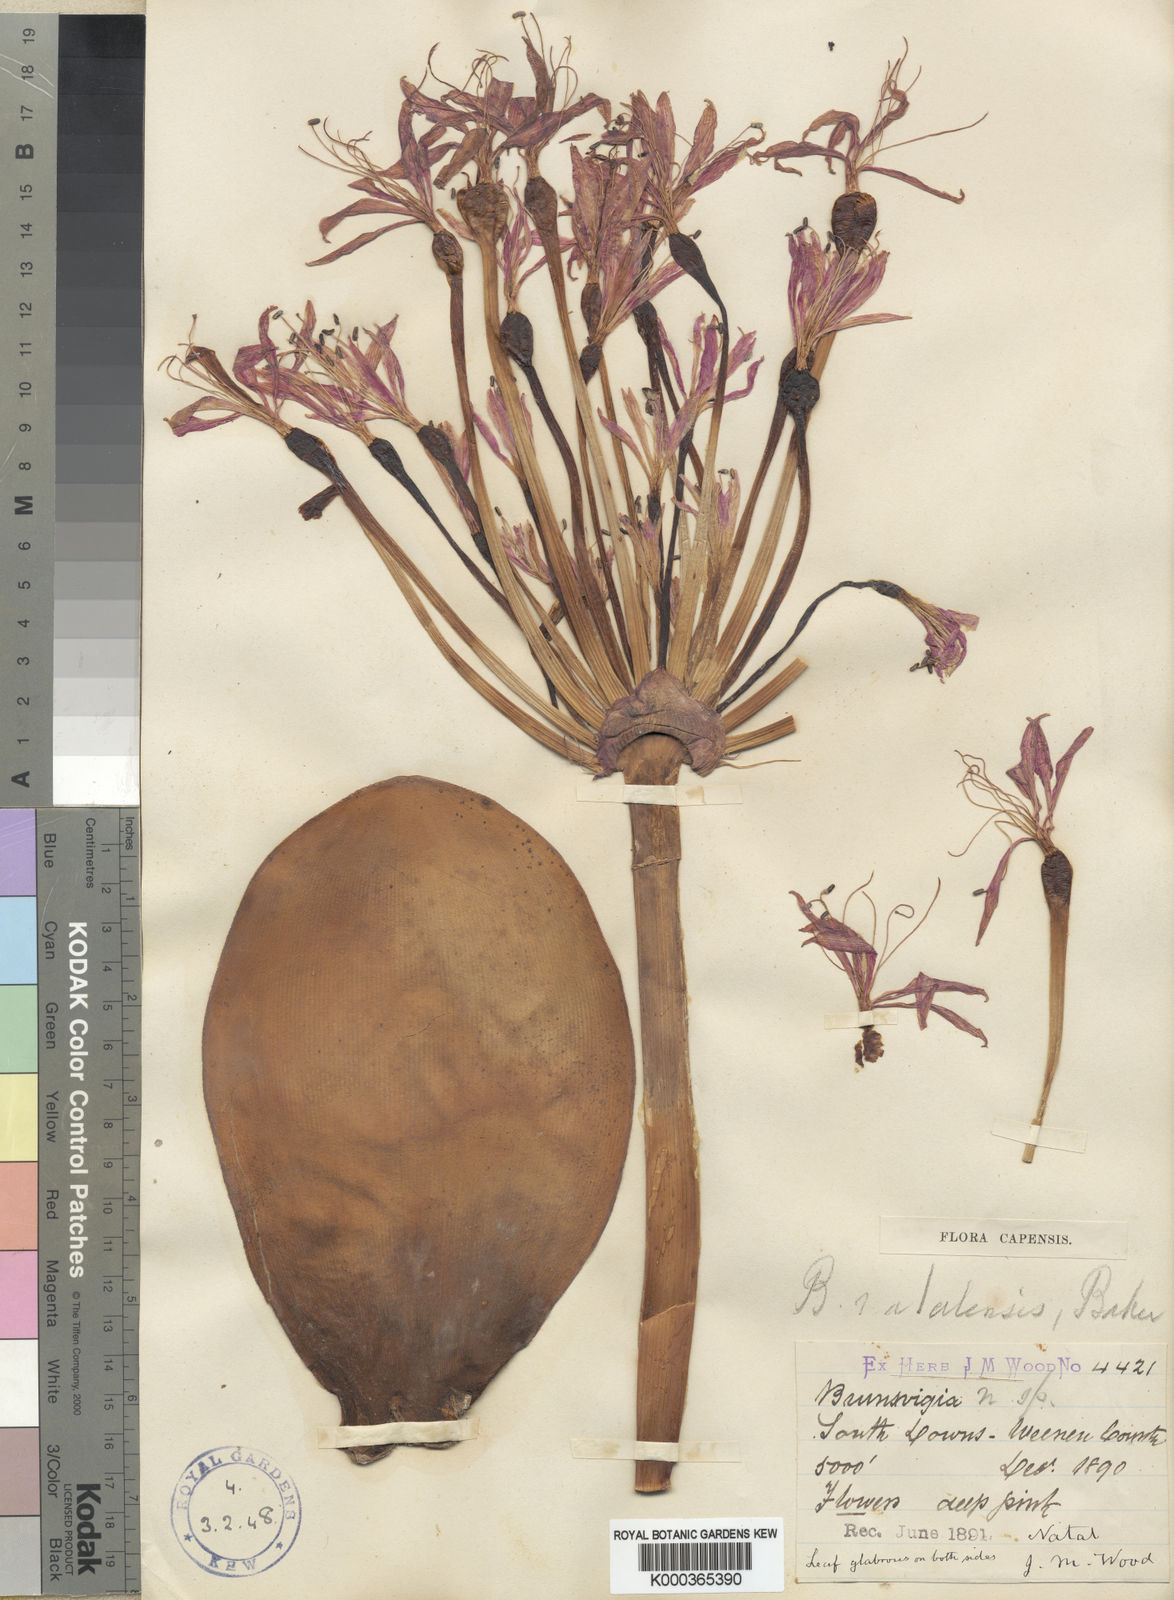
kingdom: Plantae
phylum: Tracheophyta
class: Liliopsida
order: Asparagales
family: Amaryllidaceae
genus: Brunsvigia
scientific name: Brunsvigia natalensis
